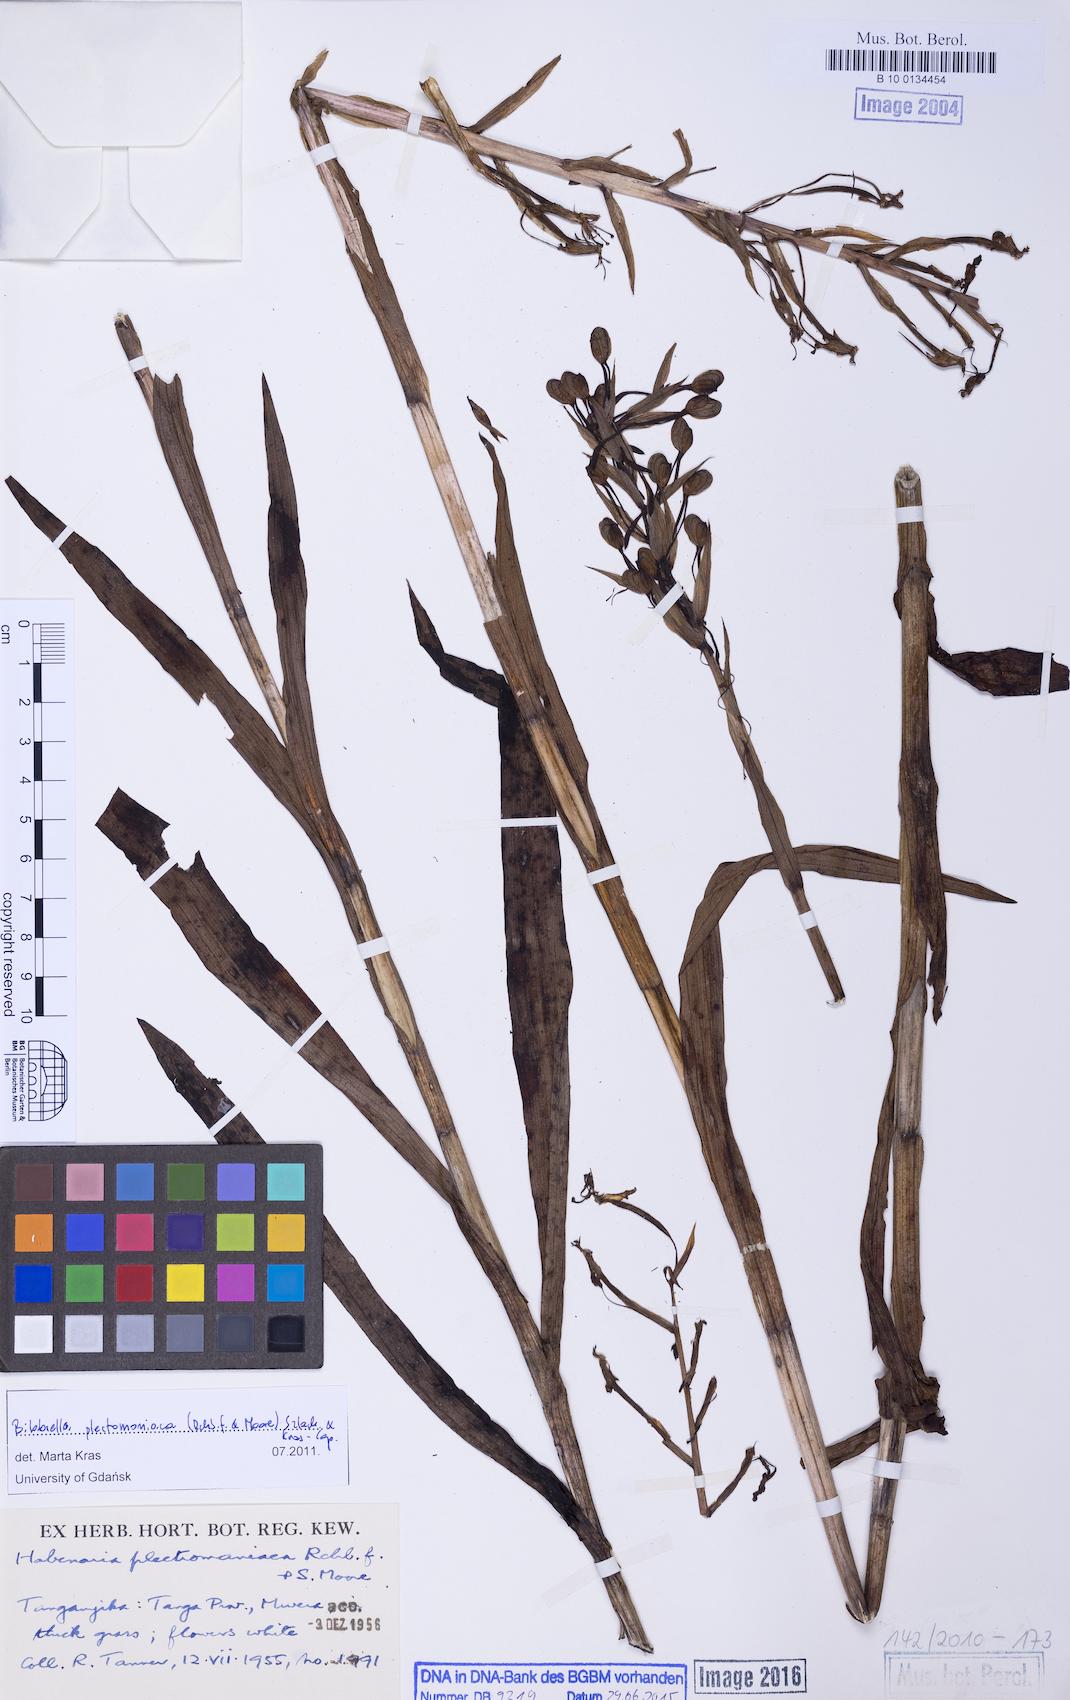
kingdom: Plantae
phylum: Tracheophyta
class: Liliopsida
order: Asparagales
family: Orchidaceae
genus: Habenaria
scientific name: Habenaria plectromaniaca
